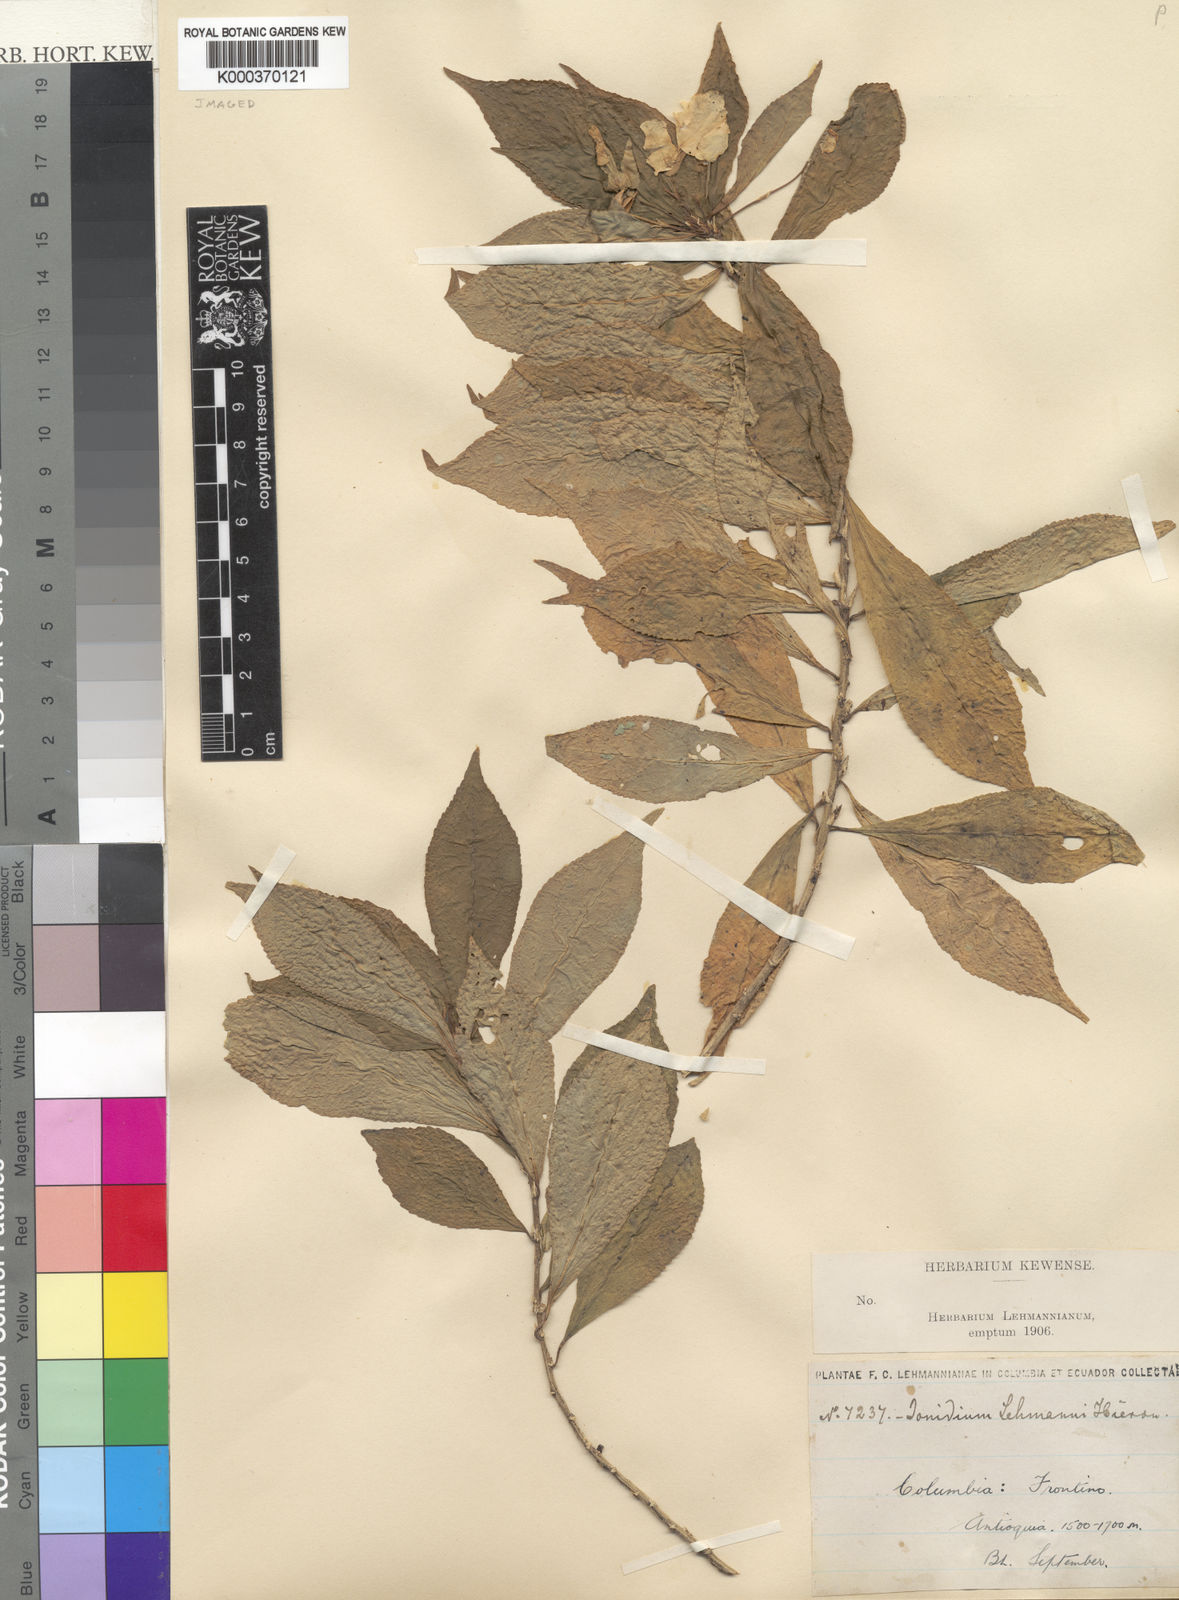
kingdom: Plantae
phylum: Tracheophyta
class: Magnoliopsida
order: Malpighiales
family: Violaceae
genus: Pombalia
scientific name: Pombalia lehmannii
